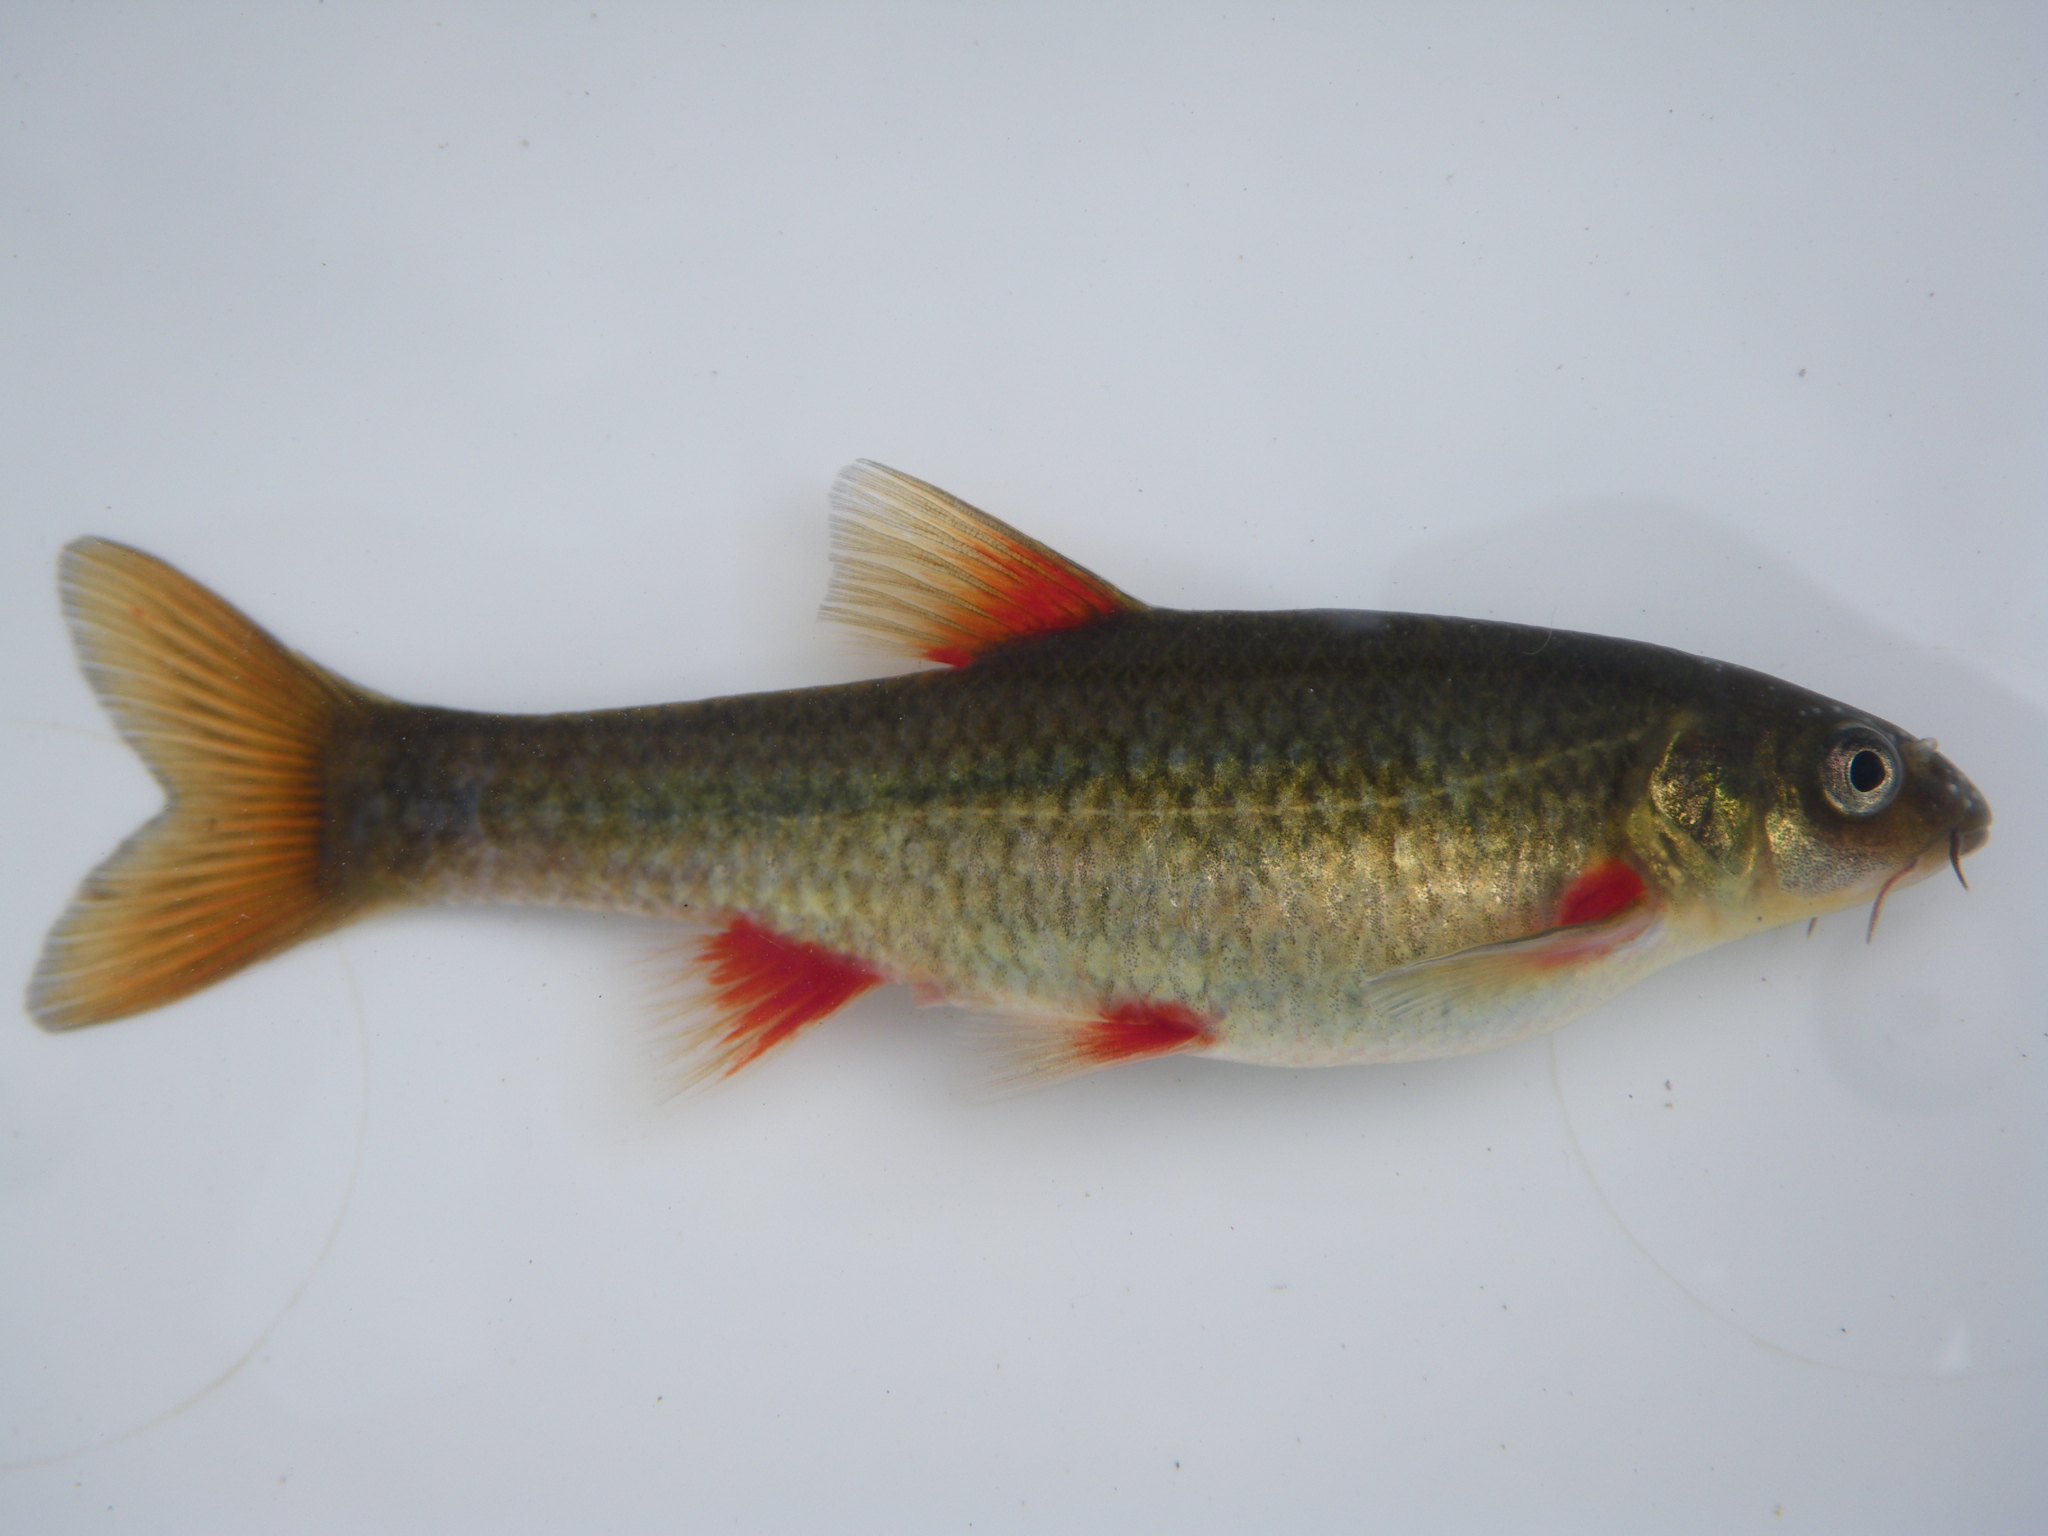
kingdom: Animalia
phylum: Chordata
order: Cypriniformes
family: Cyprinidae
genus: Pseudobarbus
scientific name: Pseudobarbus burchelli
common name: Burchell's redfin
